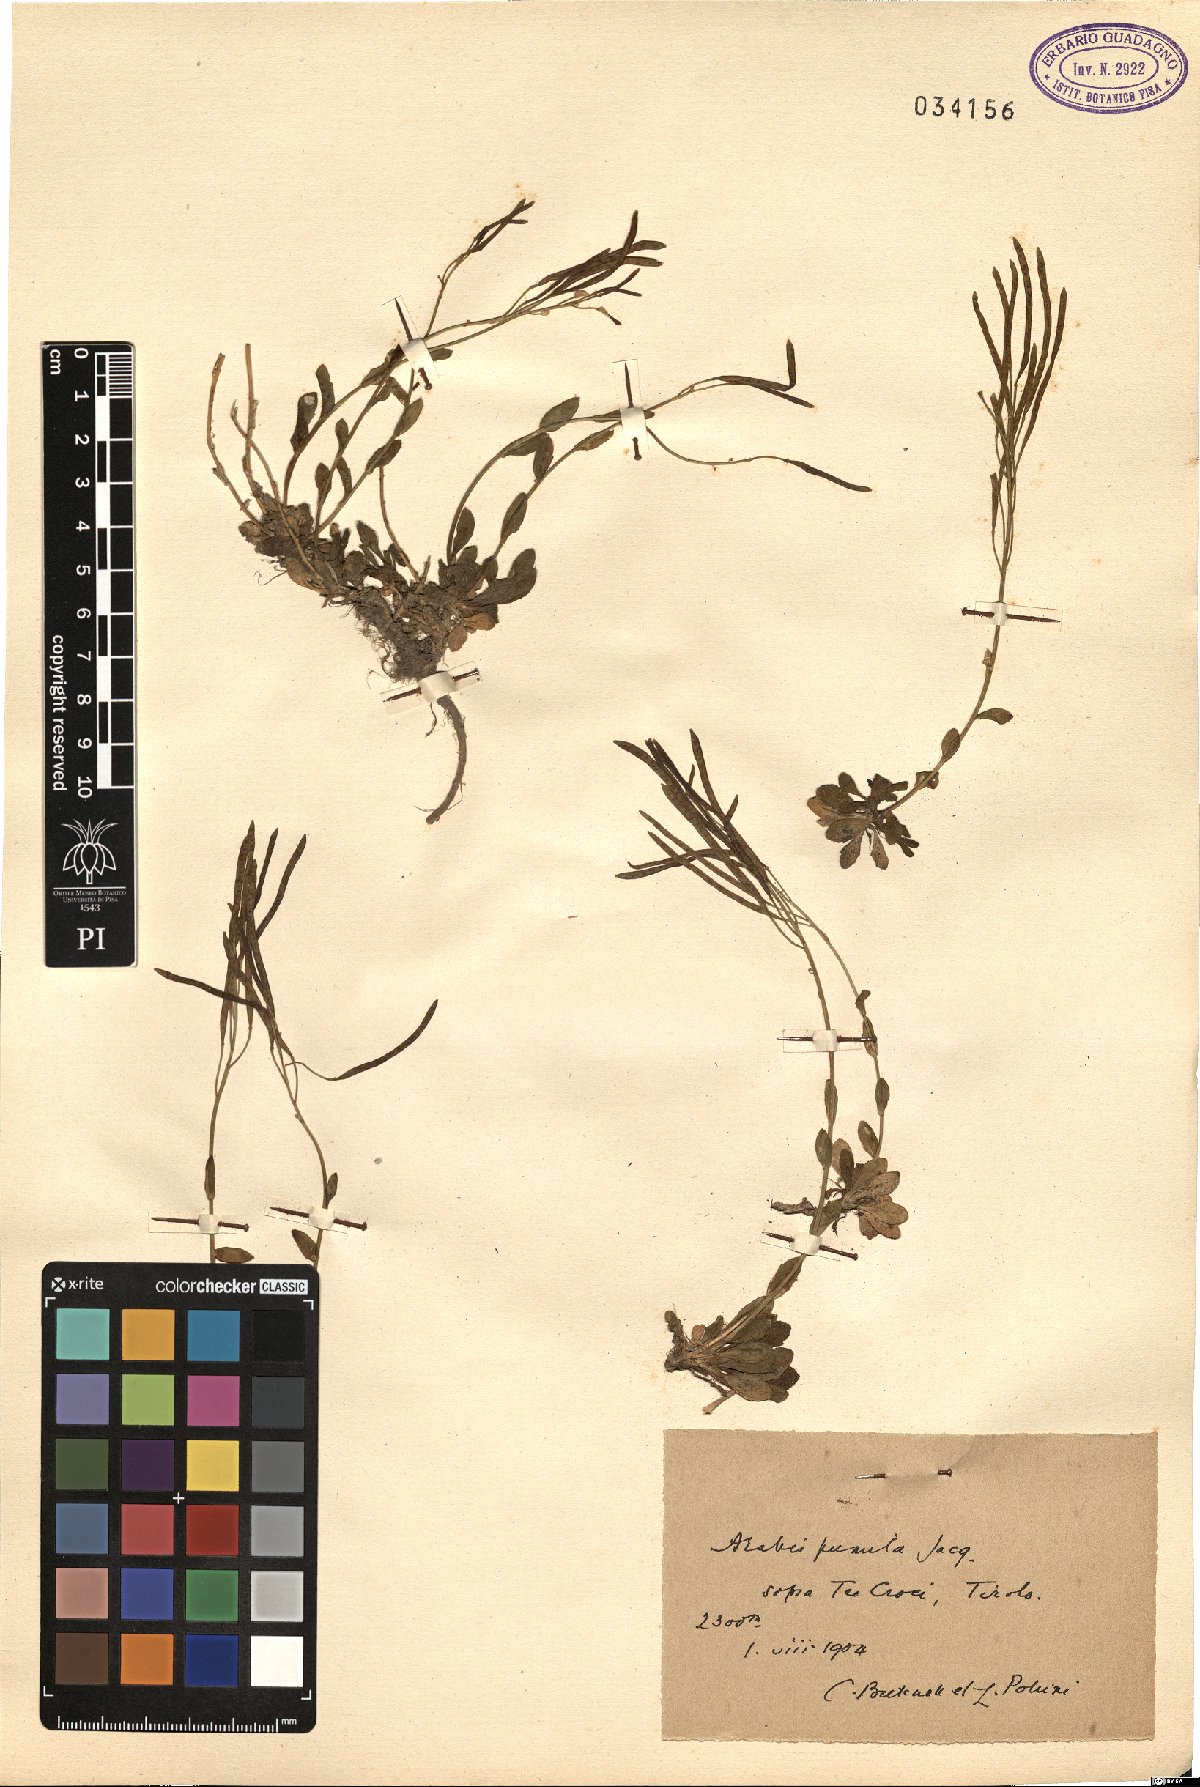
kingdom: Plantae
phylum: Tracheophyta
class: Magnoliopsida
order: Brassicales
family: Brassicaceae
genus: Arabis
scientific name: Arabis pumila
